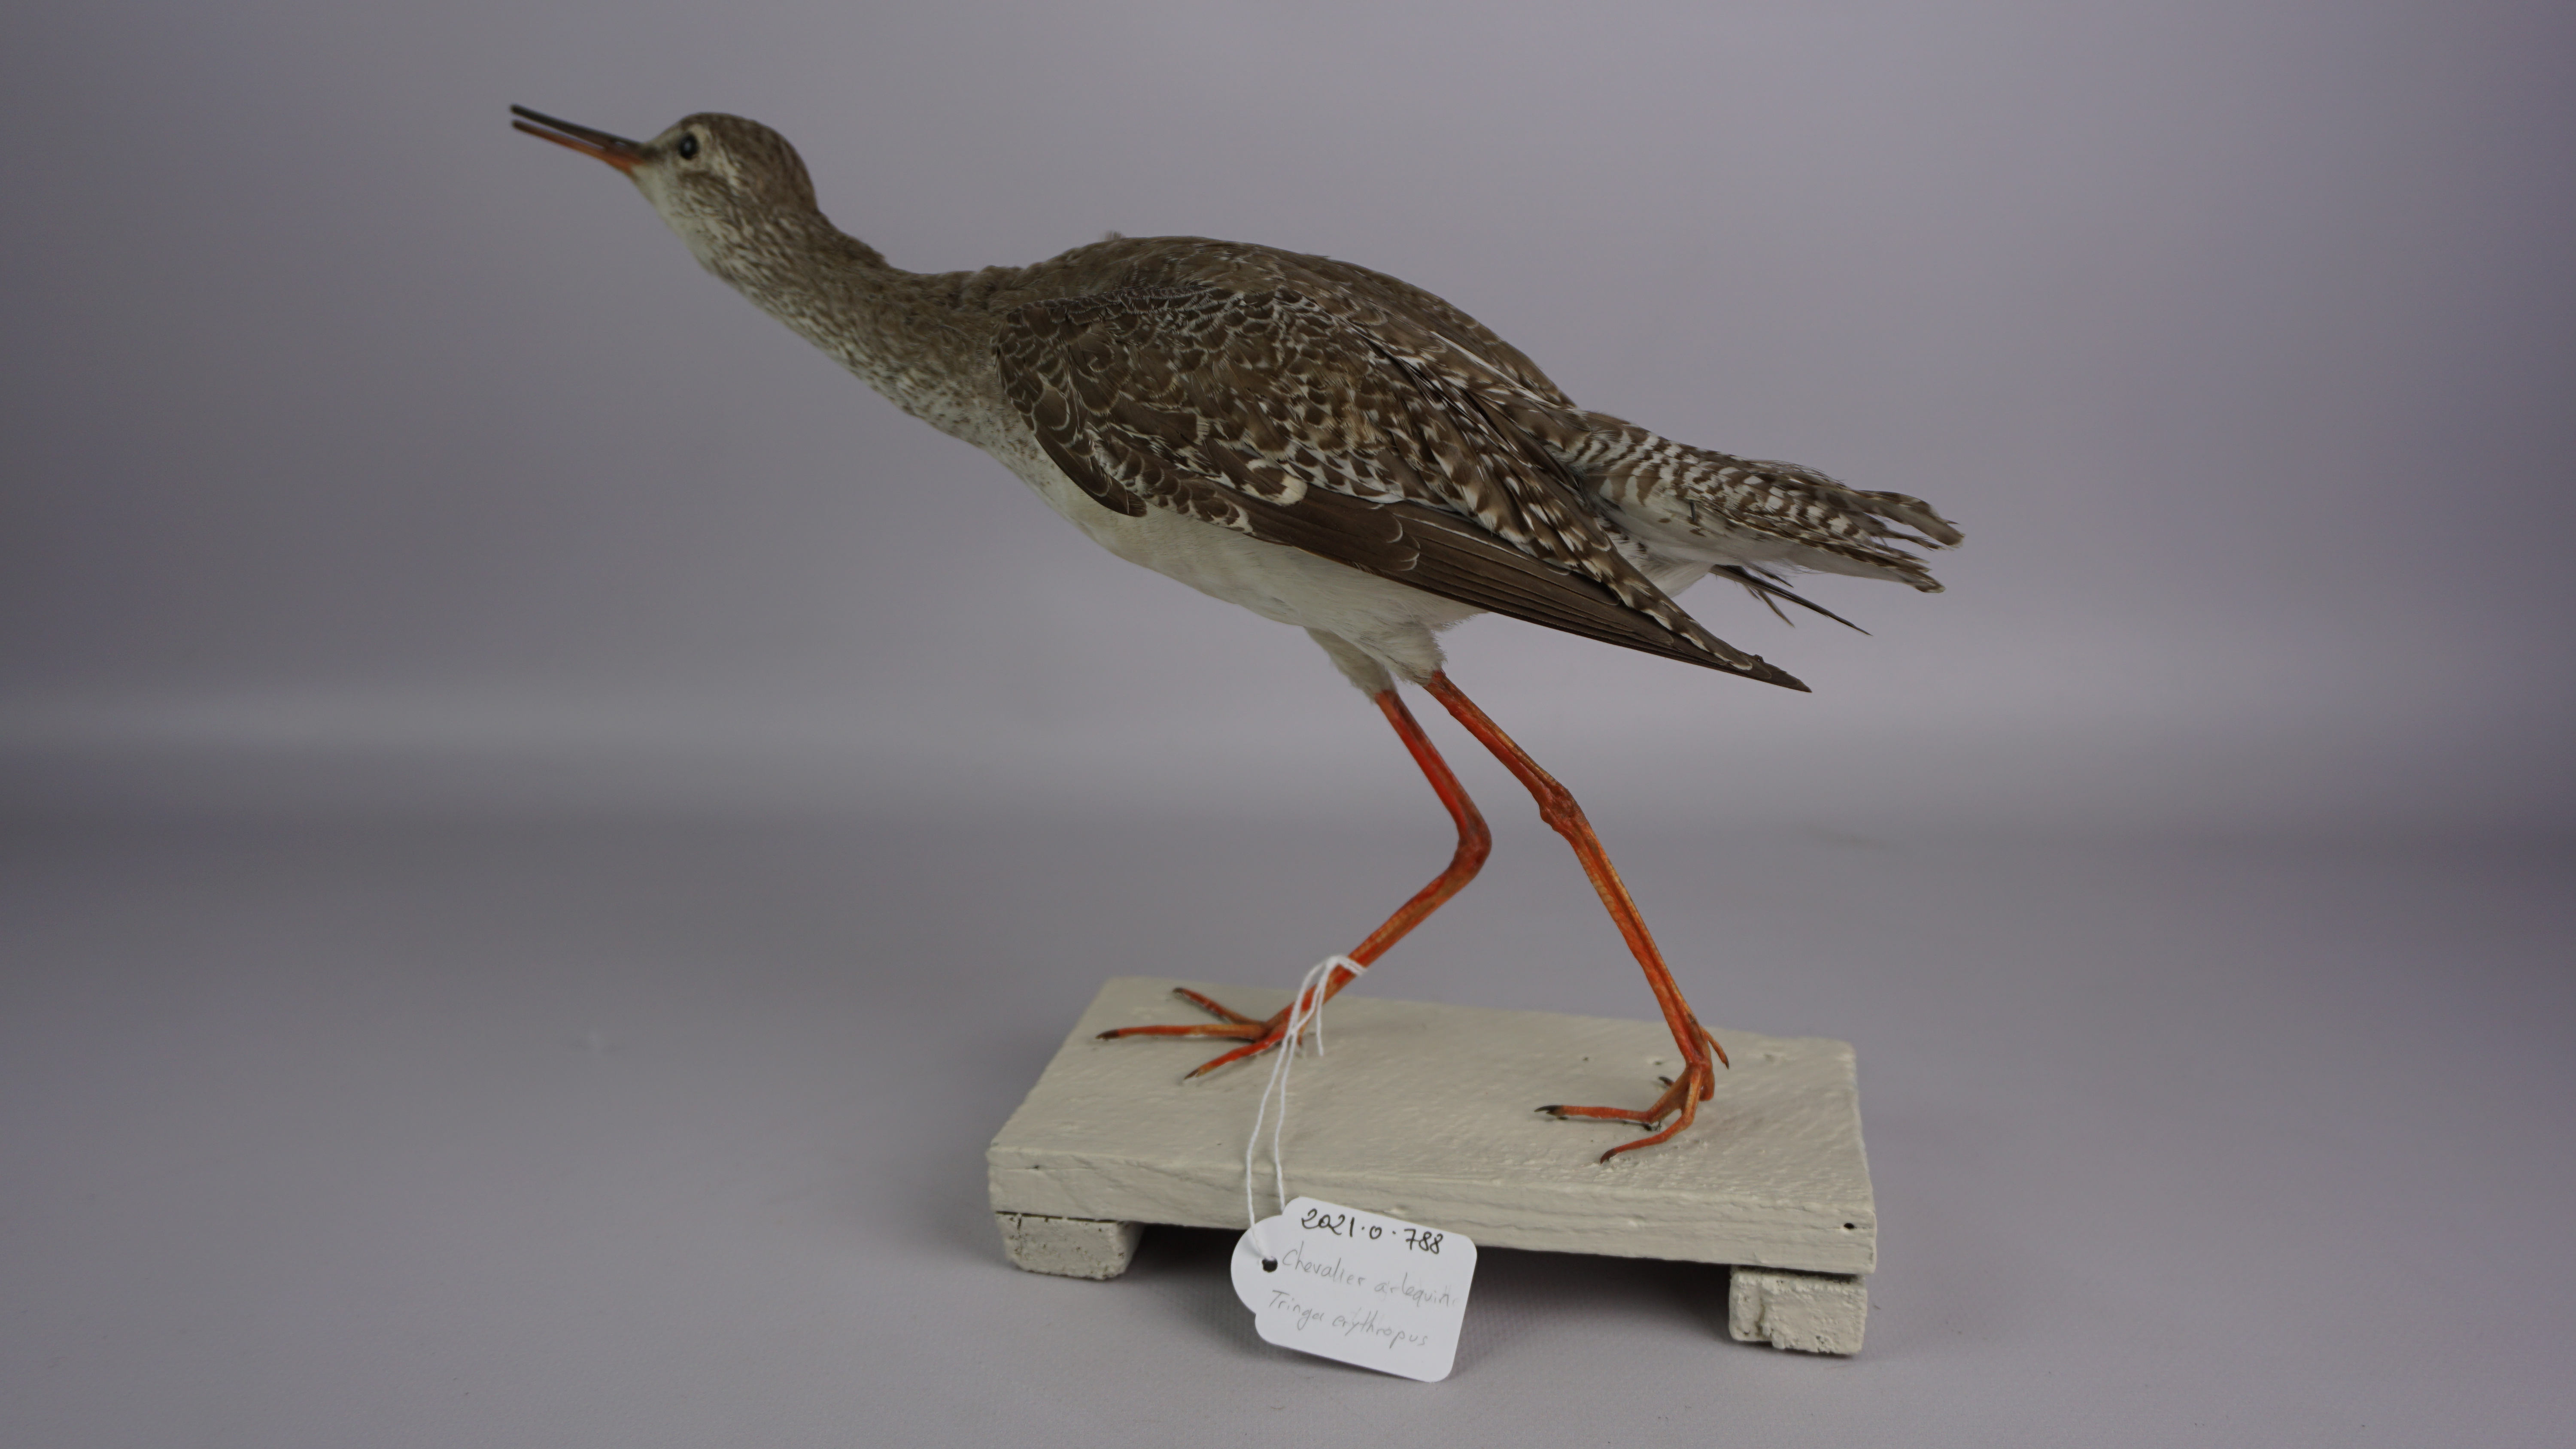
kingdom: Animalia
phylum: Chordata
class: Aves
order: Charadriiformes
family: Scolopacidae
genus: Tringa
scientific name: Tringa erythropus
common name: Spotted redshank
